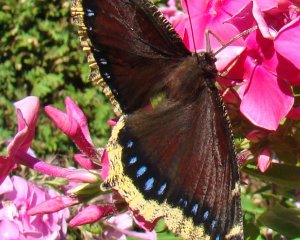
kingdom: Animalia
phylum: Arthropoda
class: Insecta
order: Lepidoptera
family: Nymphalidae
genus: Nymphalis
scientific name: Nymphalis antiopa
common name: Mourning Cloak
